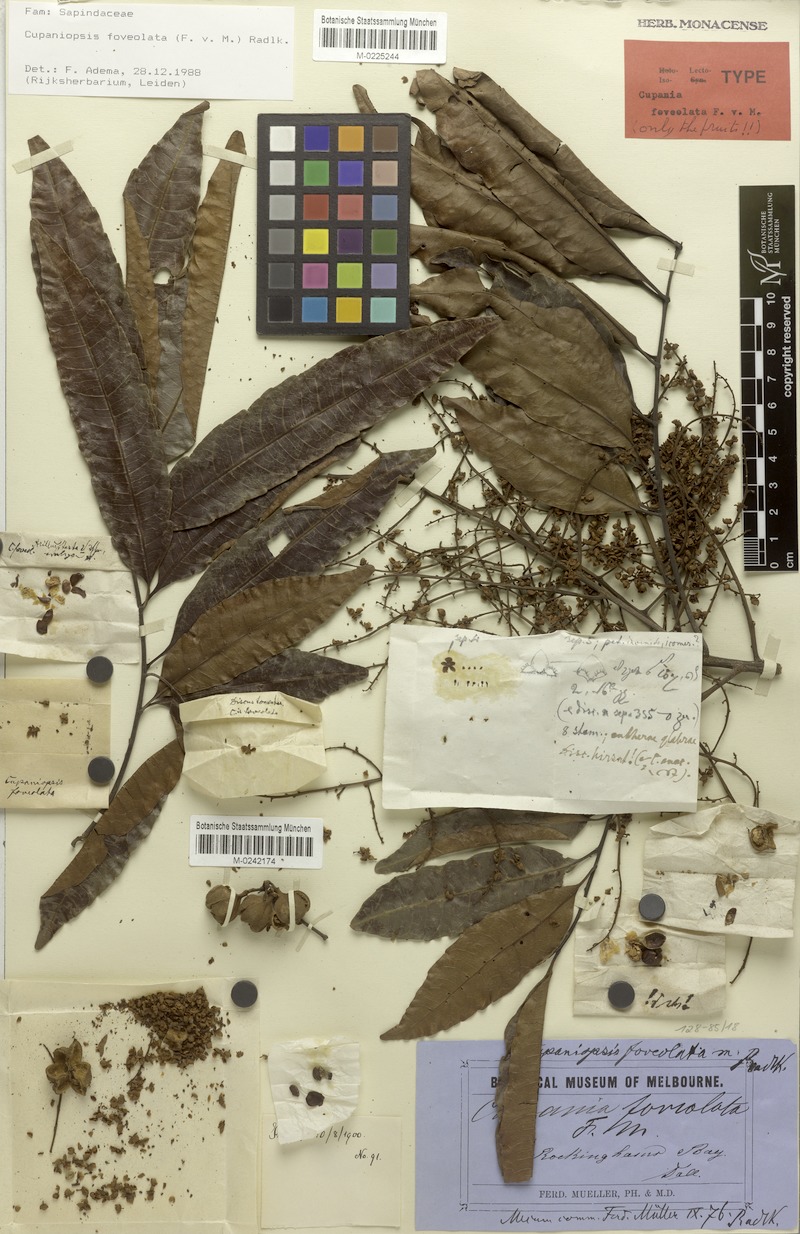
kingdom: Plantae
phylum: Tracheophyta
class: Magnoliopsida
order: Sapindales
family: Sapindaceae
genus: Cupaniopsis
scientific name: Cupaniopsis foveolata
